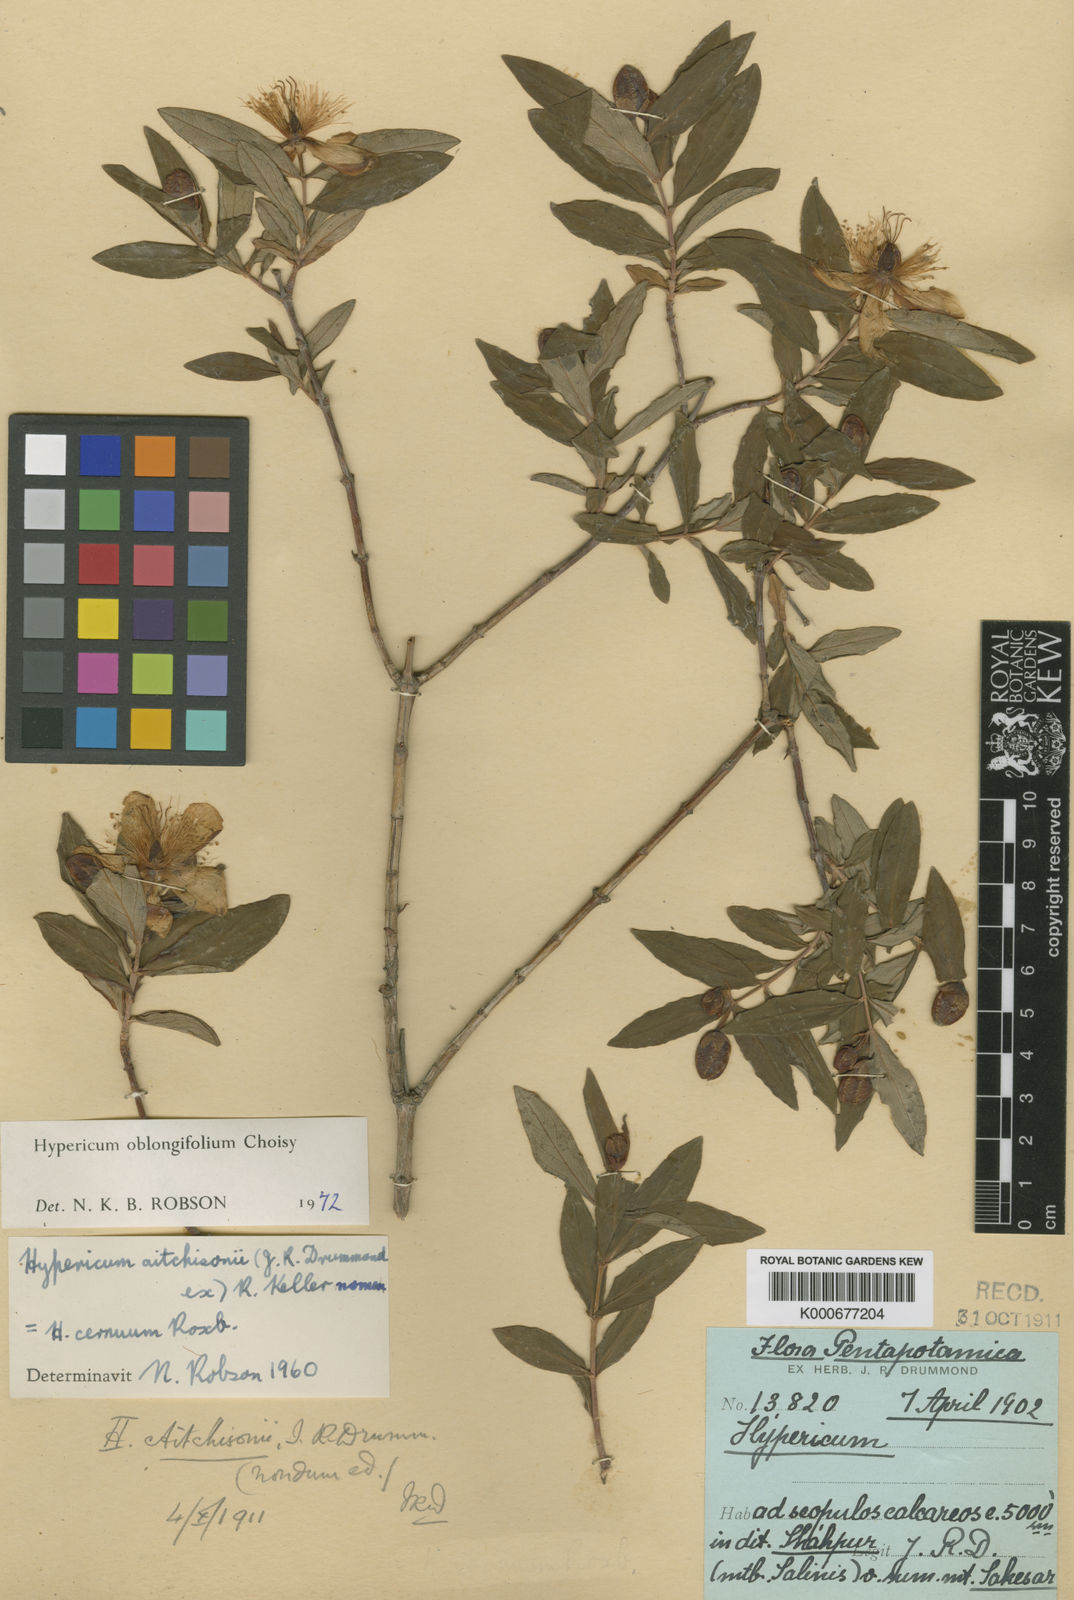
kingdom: Plantae
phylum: Tracheophyta
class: Magnoliopsida
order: Malpighiales
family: Hypericaceae
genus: Hypericum
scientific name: Hypericum oblongifolium
